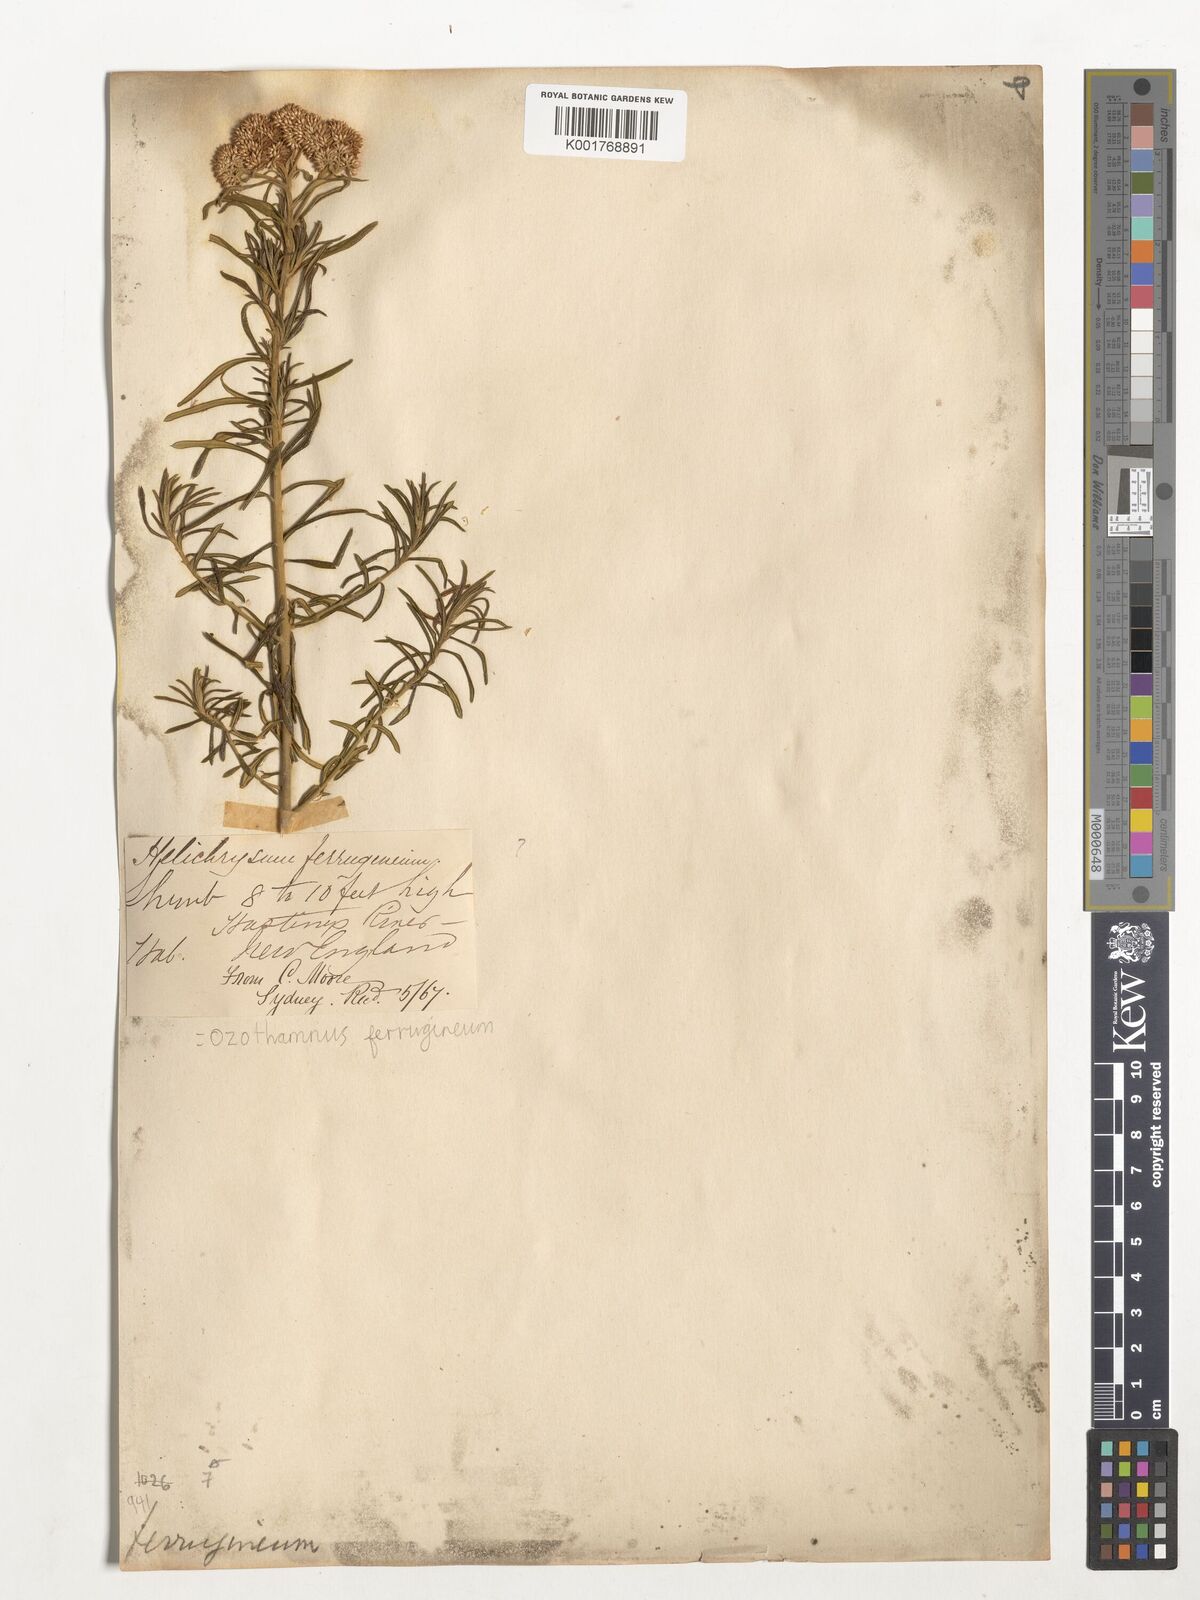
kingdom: Plantae
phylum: Tracheophyta
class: Magnoliopsida
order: Asterales
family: Asteraceae
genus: Ozothamnus
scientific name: Ozothamnus ferrugineus
